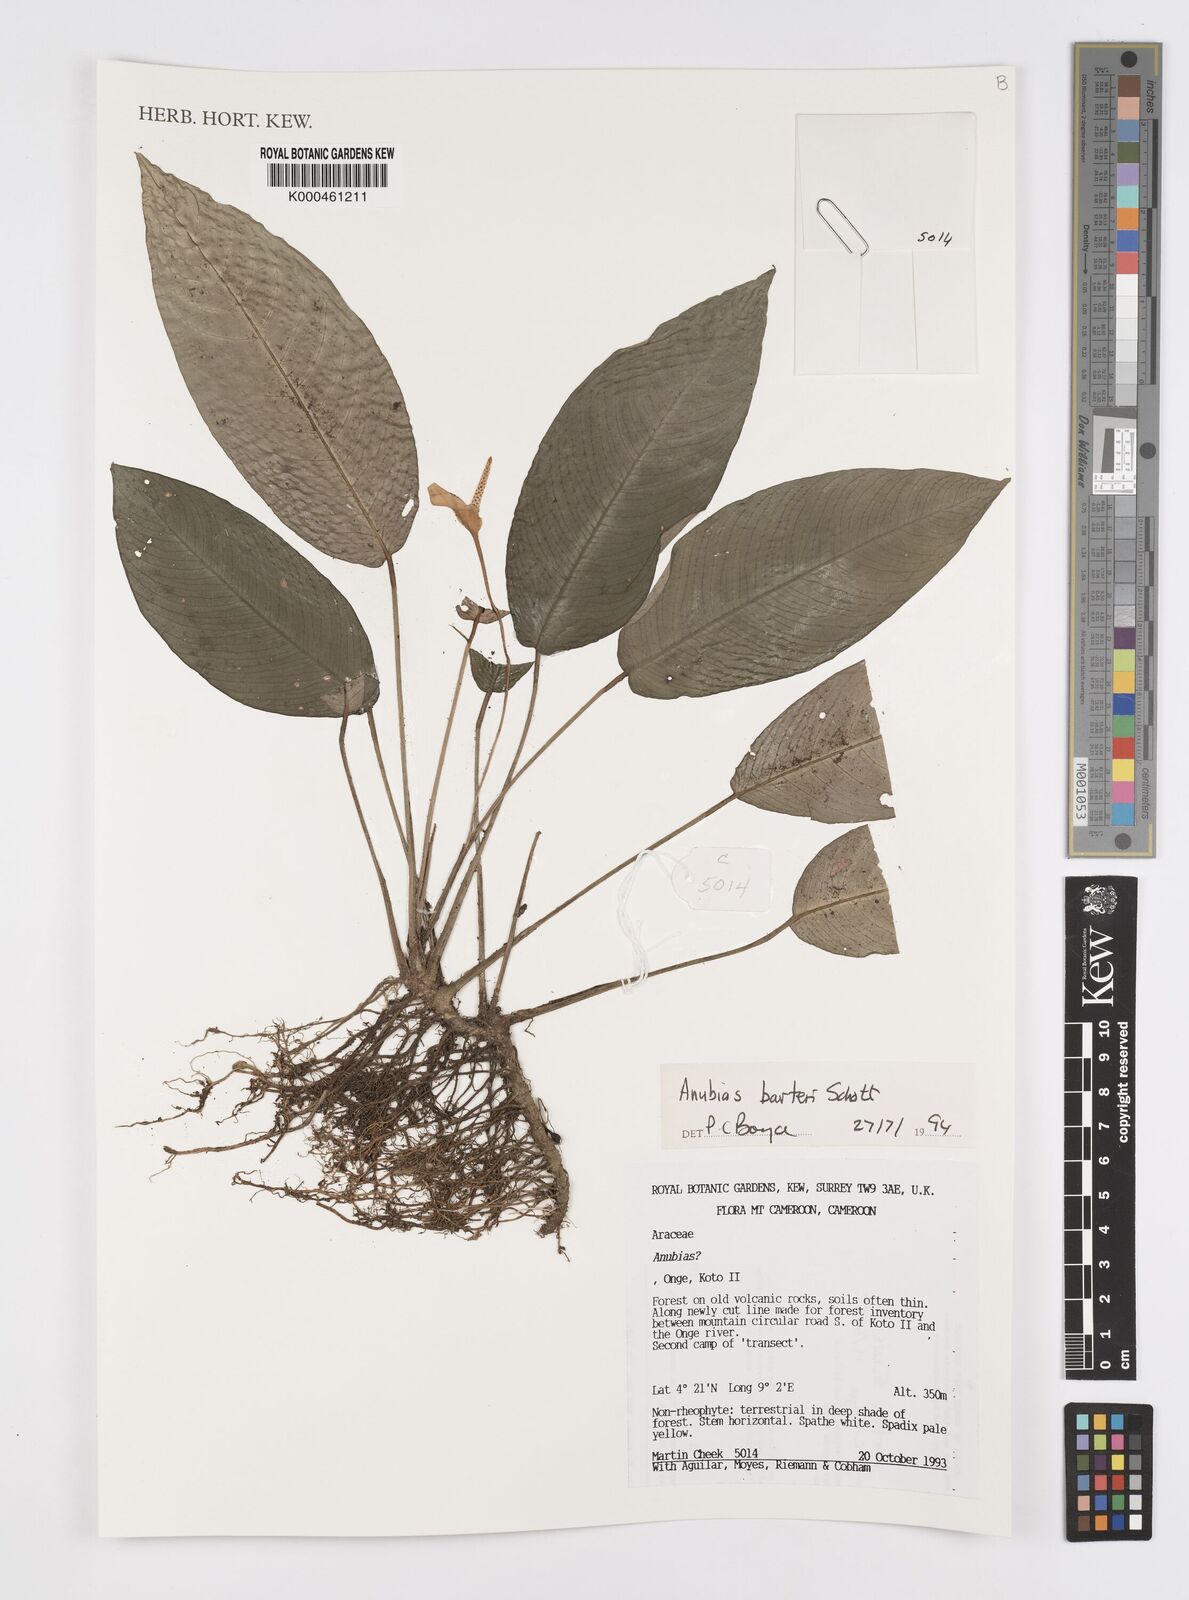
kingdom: Plantae
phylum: Tracheophyta
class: Liliopsida
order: Alismatales
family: Araceae
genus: Anubias
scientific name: Anubias barteri
